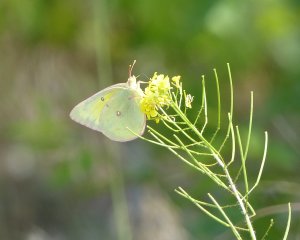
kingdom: Animalia
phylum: Arthropoda
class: Insecta
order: Lepidoptera
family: Pieridae
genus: Colias
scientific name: Colias philodice
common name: Clouded Sulphur
